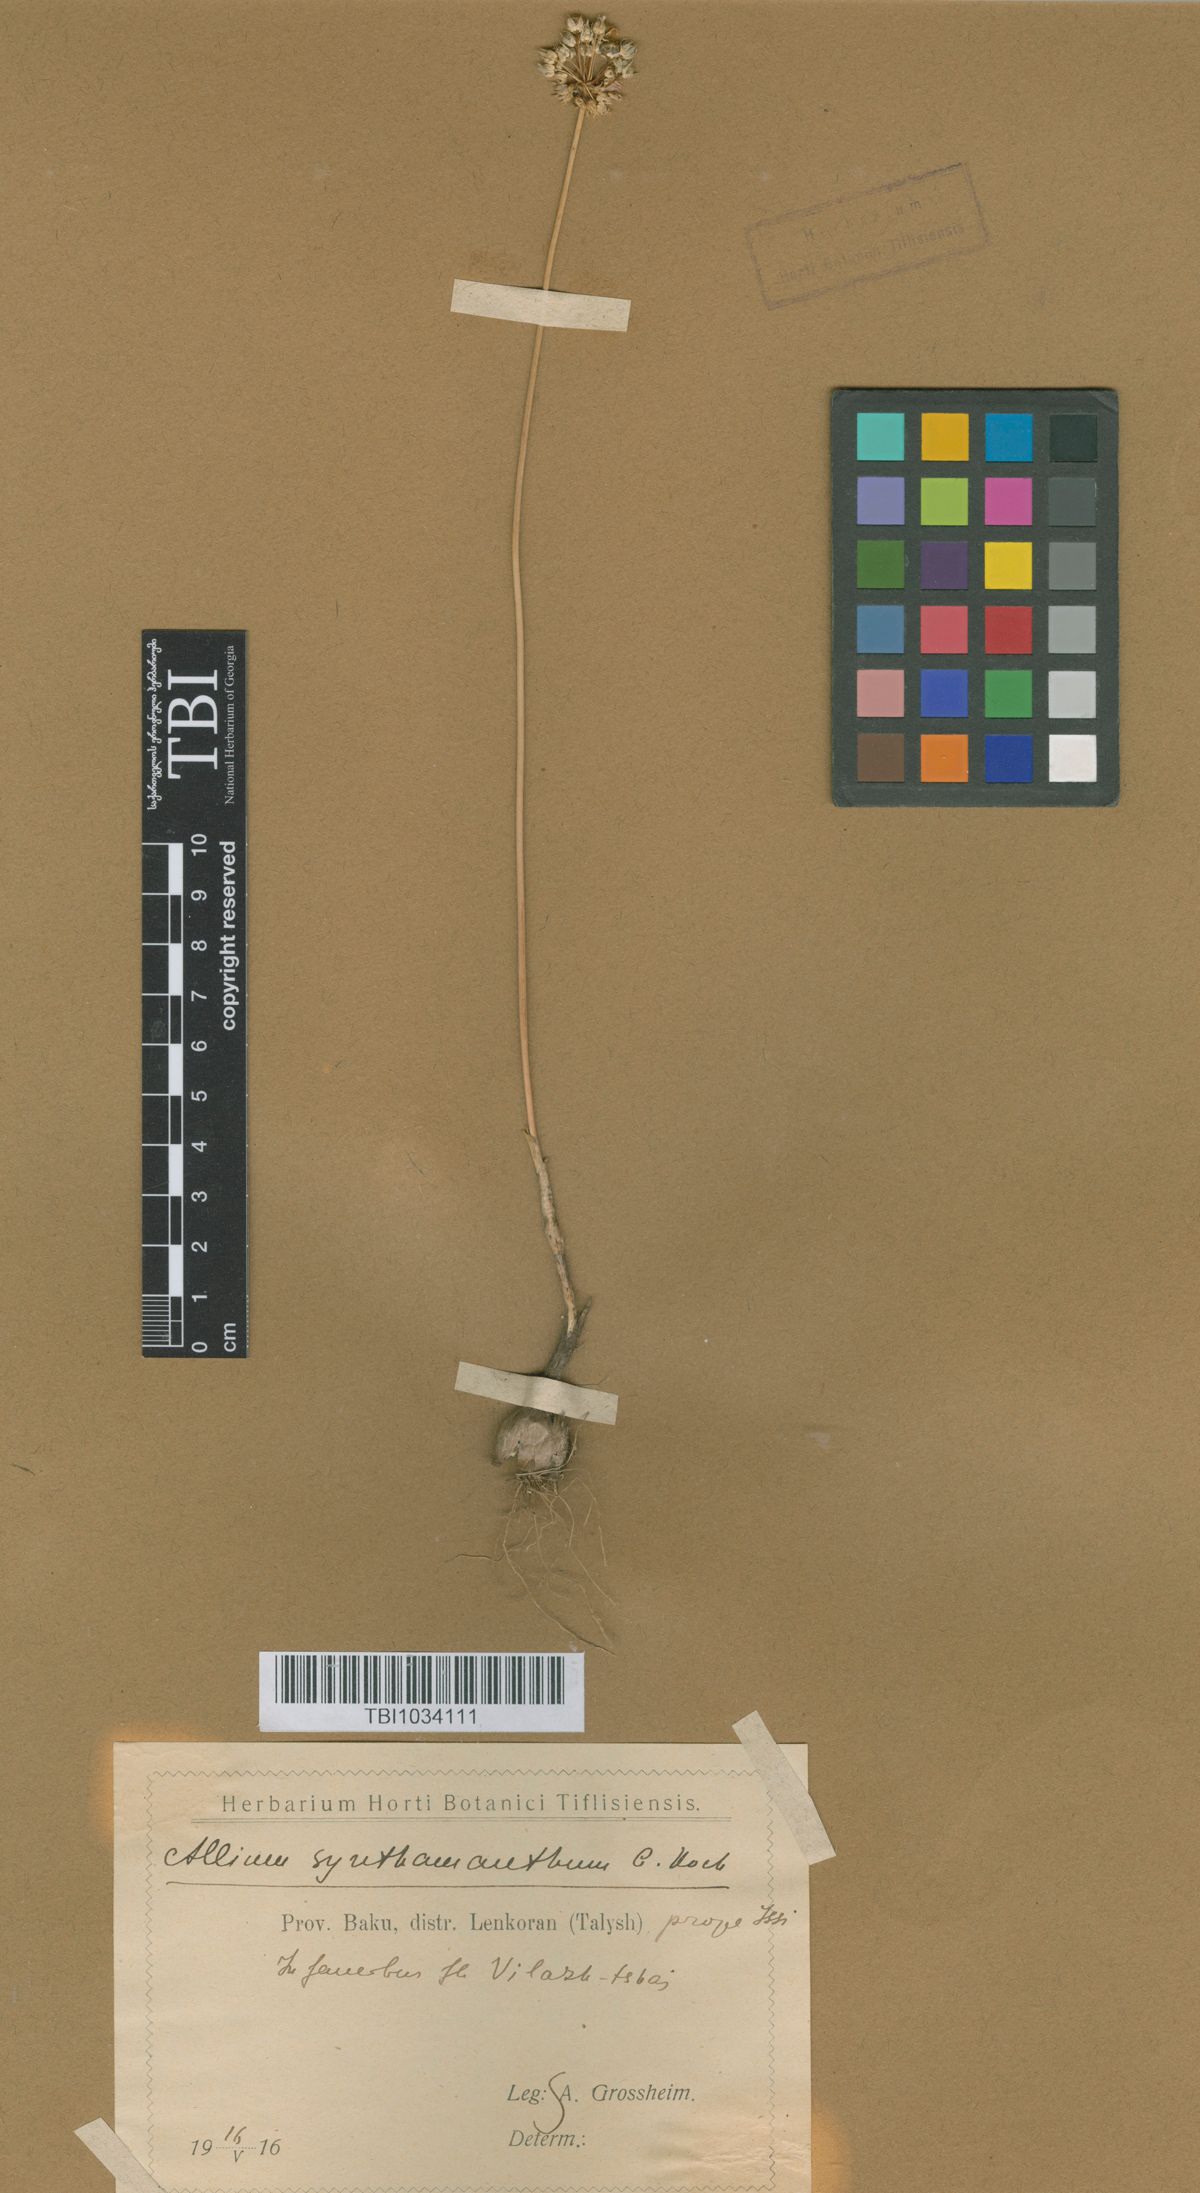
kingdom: Plantae
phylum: Tracheophyta
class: Liliopsida
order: Asparagales
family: Amaryllidaceae
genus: Allium
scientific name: Allium rubellum
